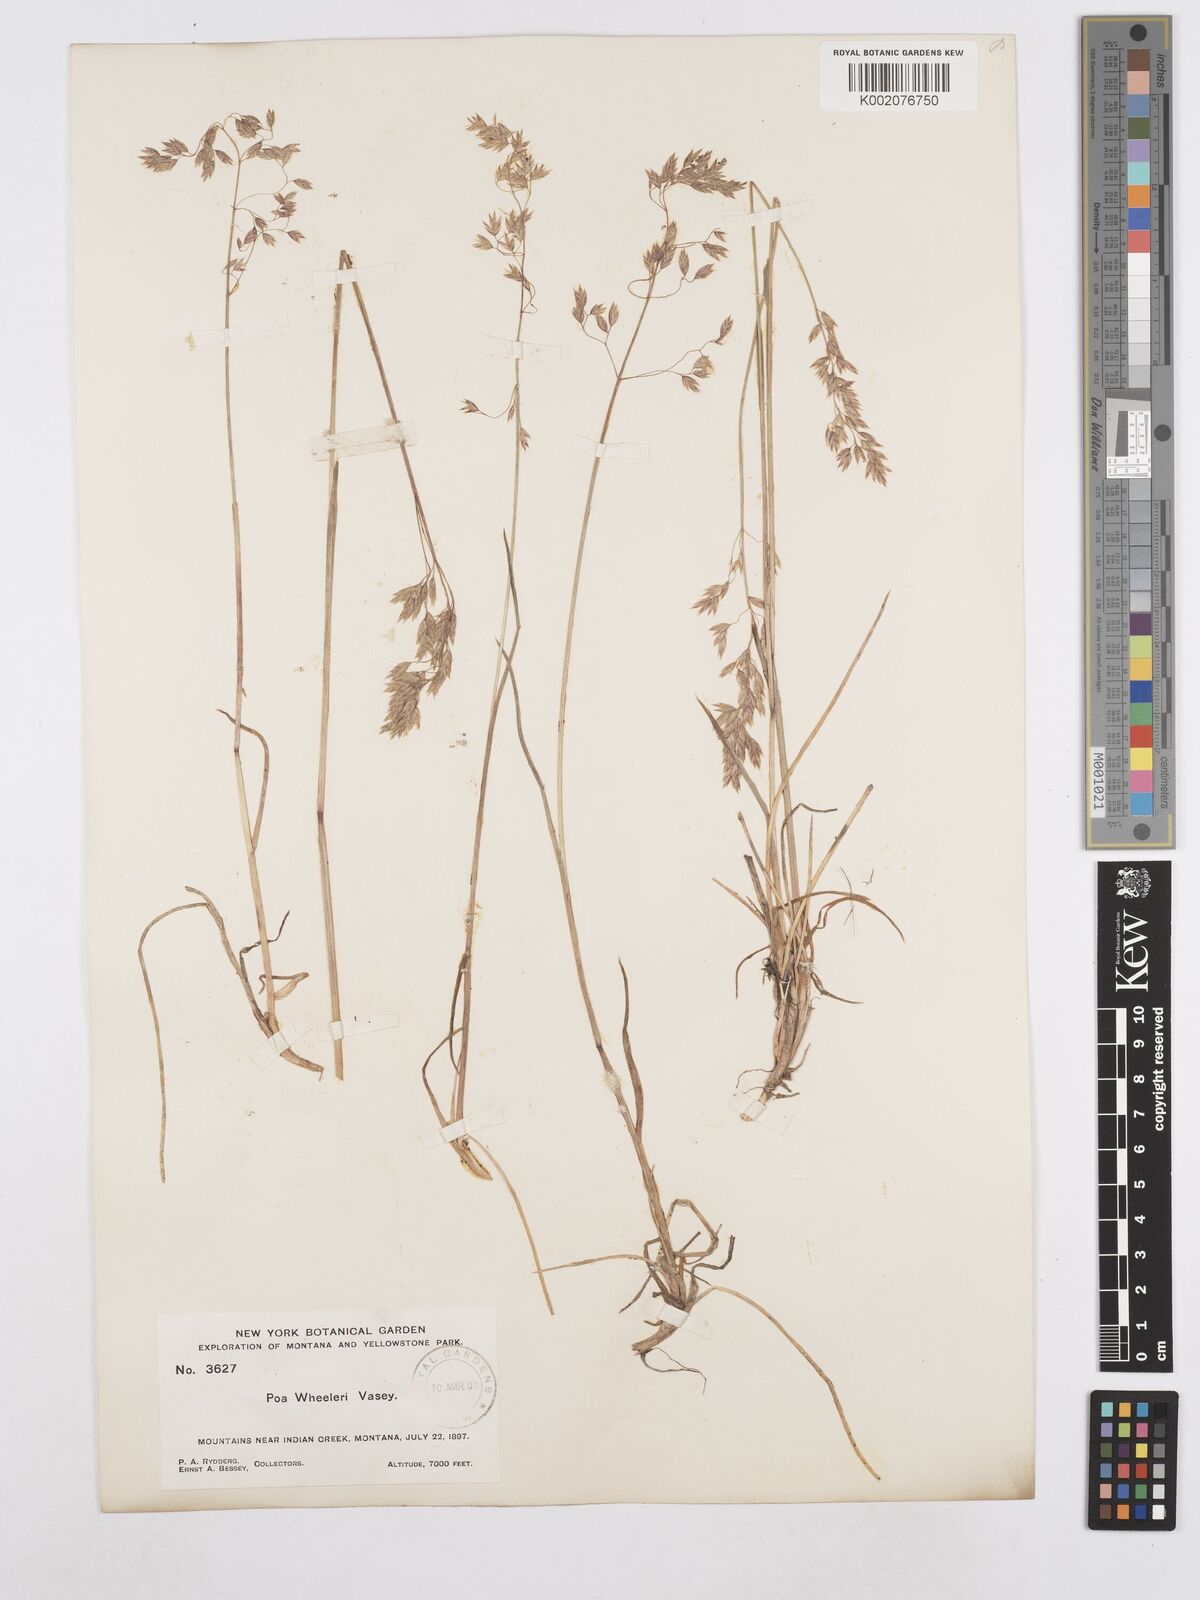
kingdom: Plantae
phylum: Tracheophyta
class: Liliopsida
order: Poales
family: Poaceae
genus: Poa
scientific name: Poa wheeleri
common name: Wheeler's bluegrass
